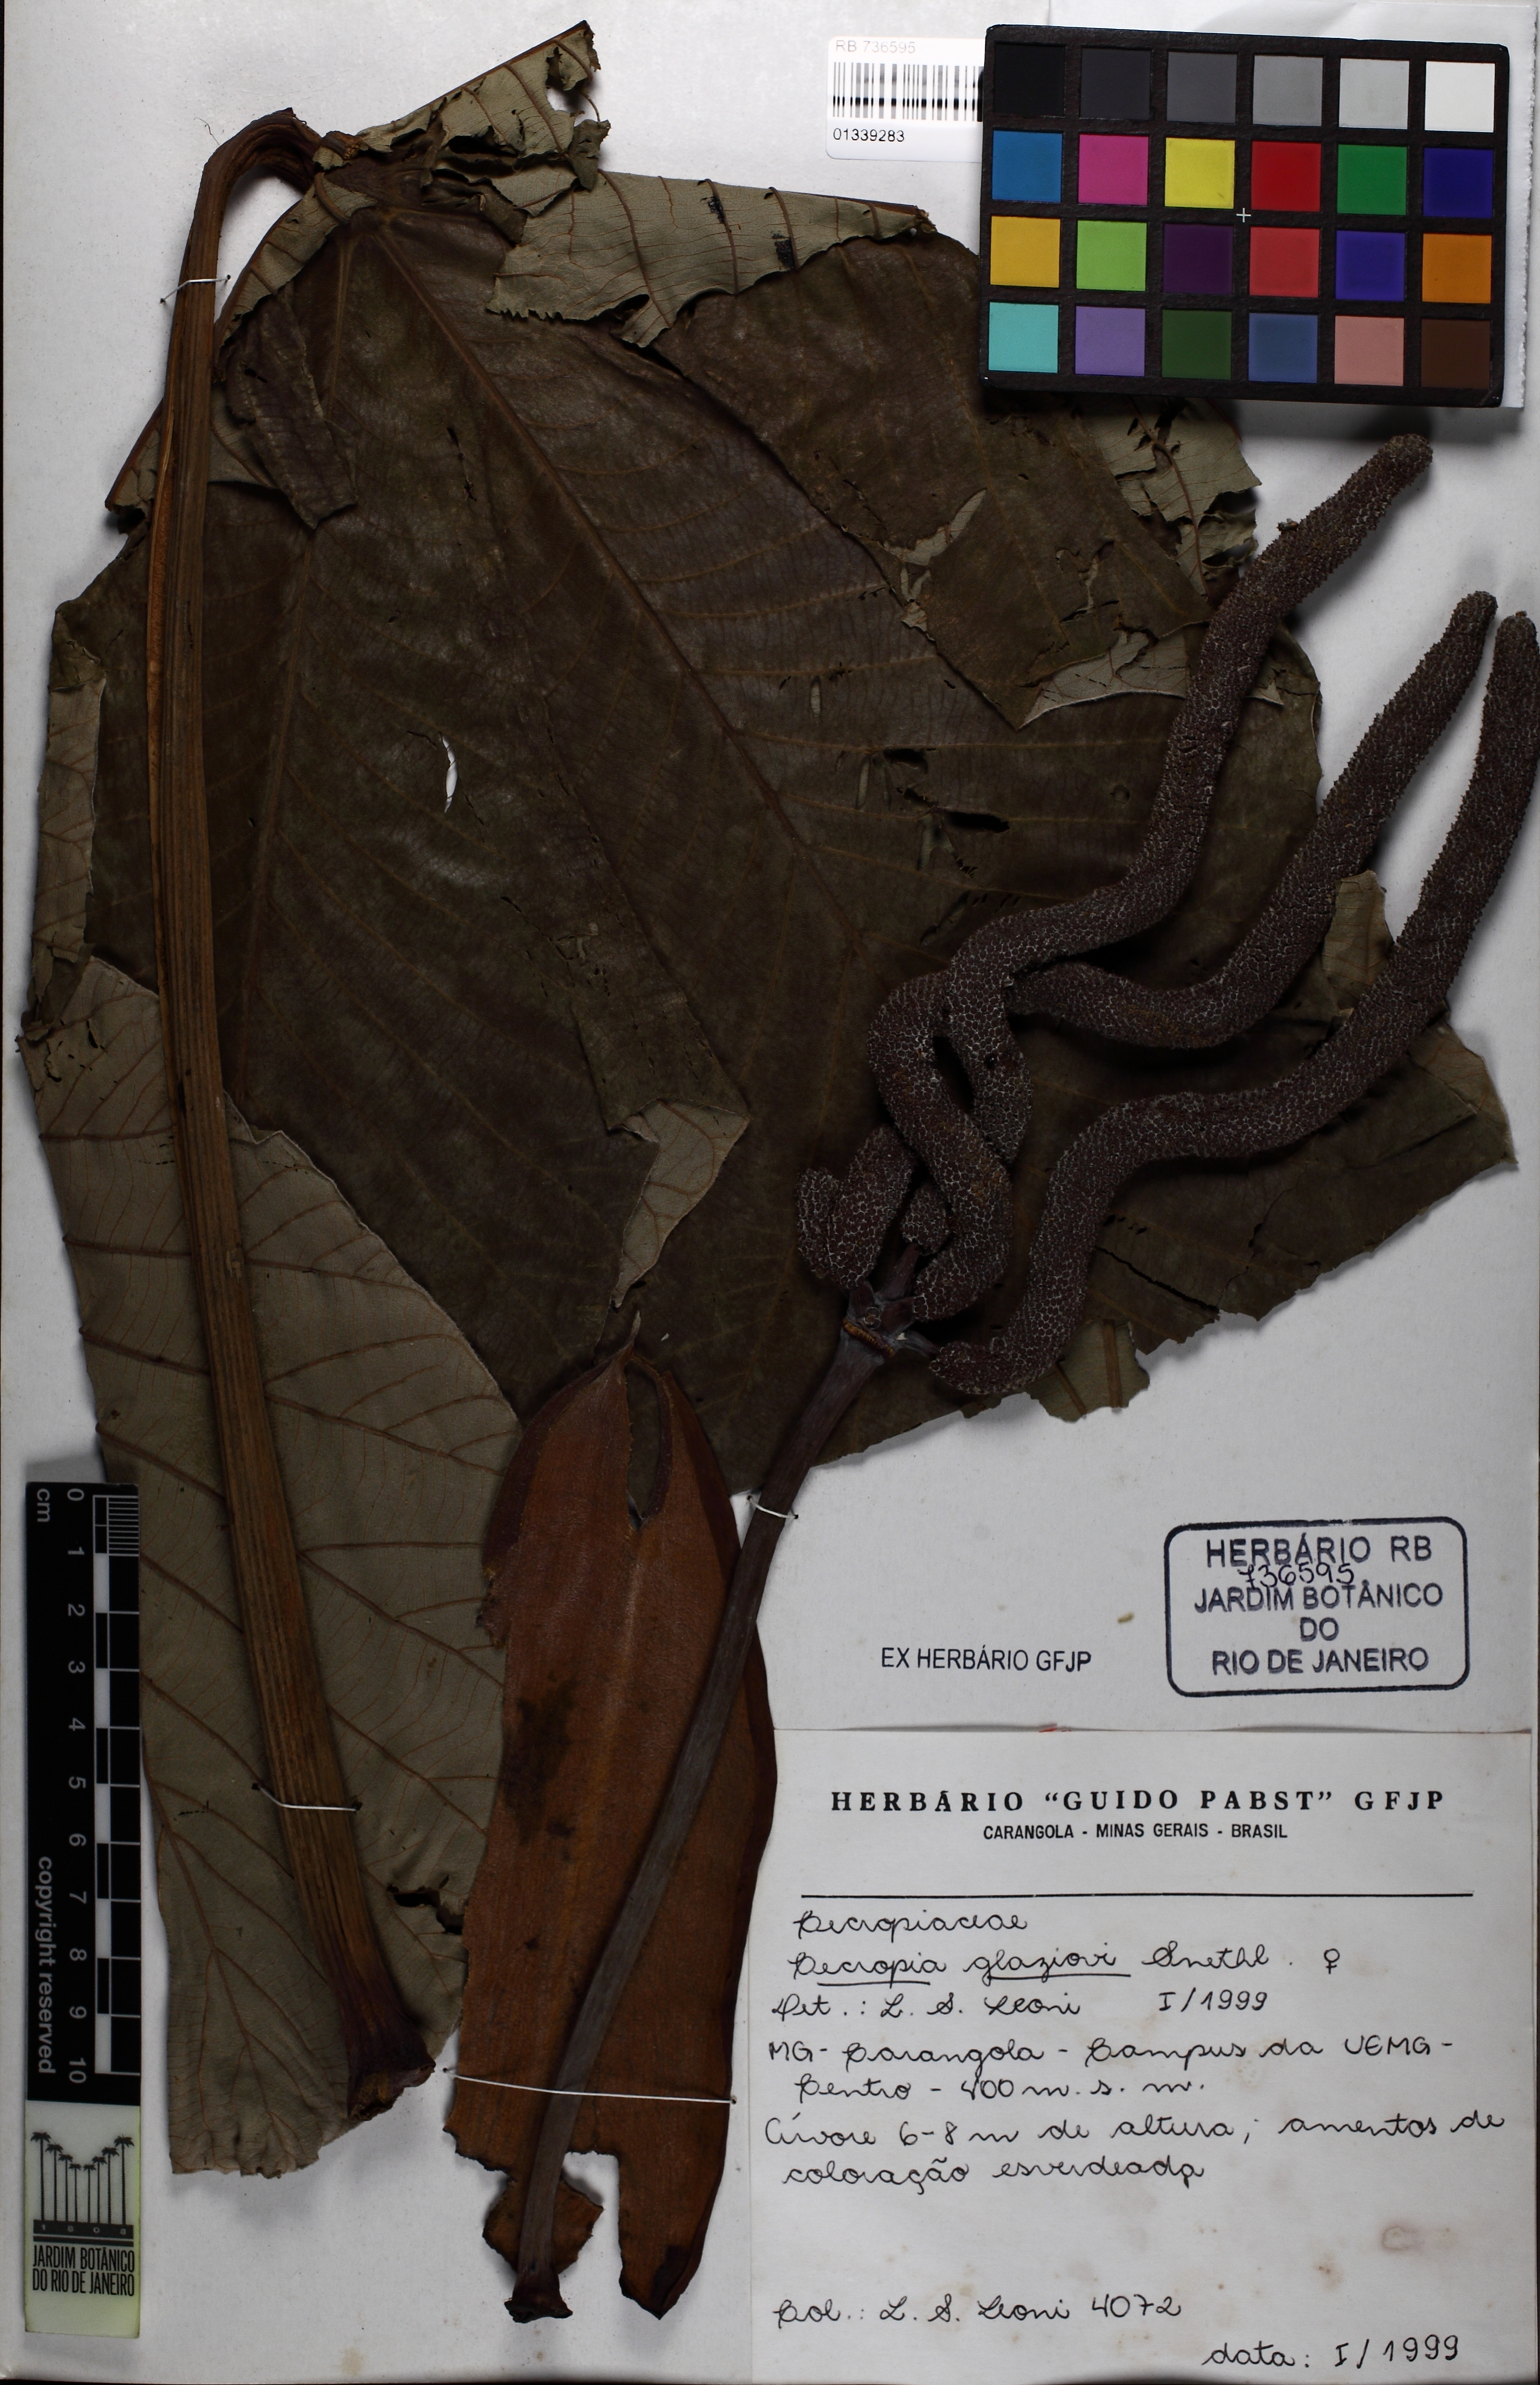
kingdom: Plantae
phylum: Tracheophyta
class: Magnoliopsida
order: Rosales
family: Urticaceae
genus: Cecropia
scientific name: Cecropia glaziovii
